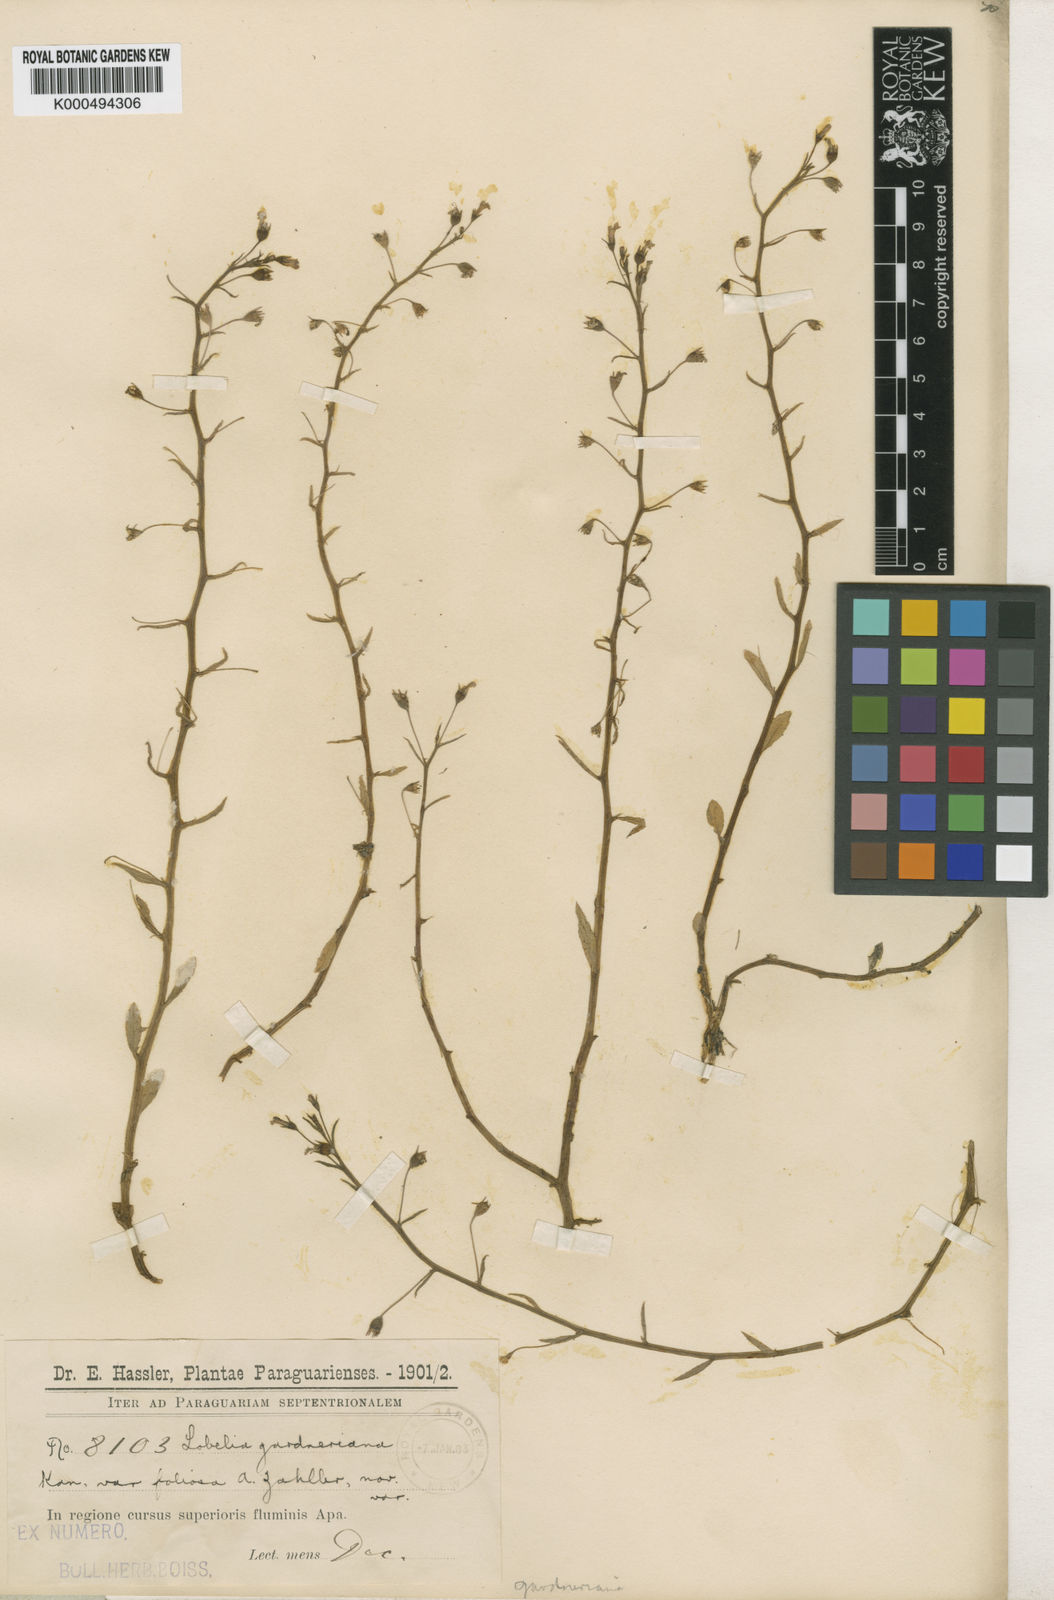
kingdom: Plantae
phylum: Tracheophyta
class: Magnoliopsida
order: Asterales
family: Campanulaceae
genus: Lobelia
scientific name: Lobelia aquatica
